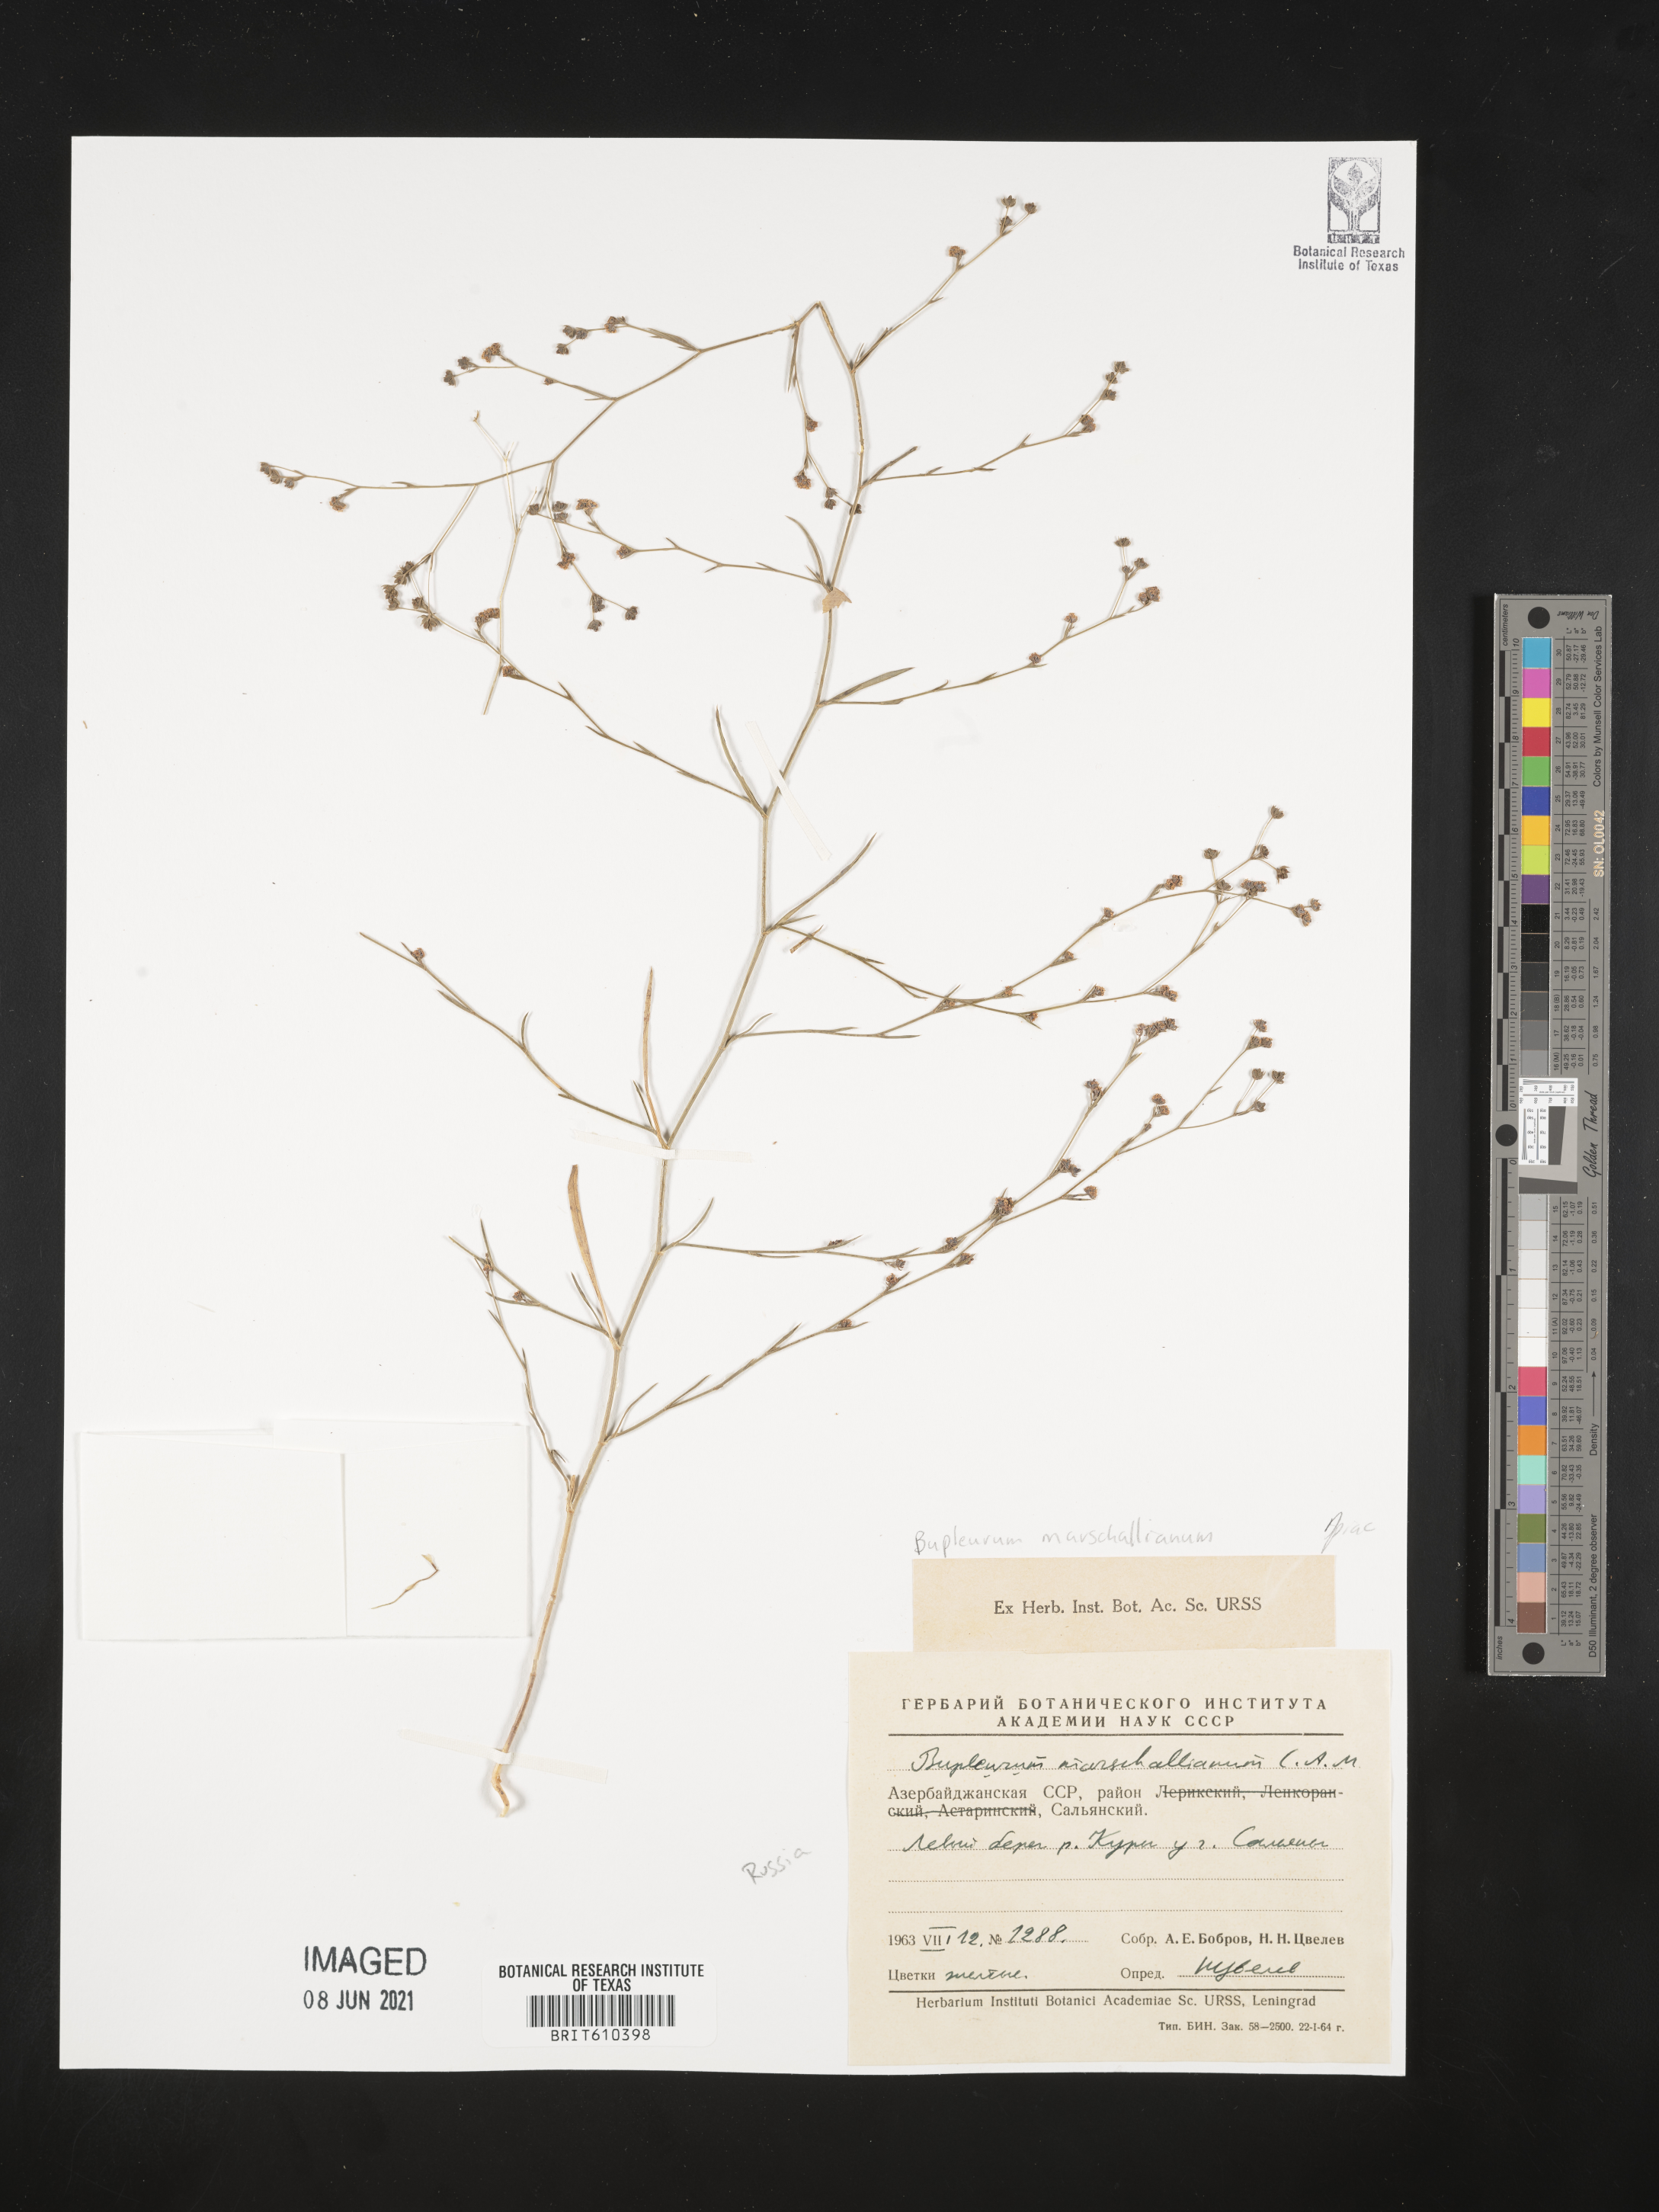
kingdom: Plantae
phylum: Tracheophyta
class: Magnoliopsida
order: Apiales
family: Apiaceae
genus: Bupleurum
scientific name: Bupleurum marschallianum
